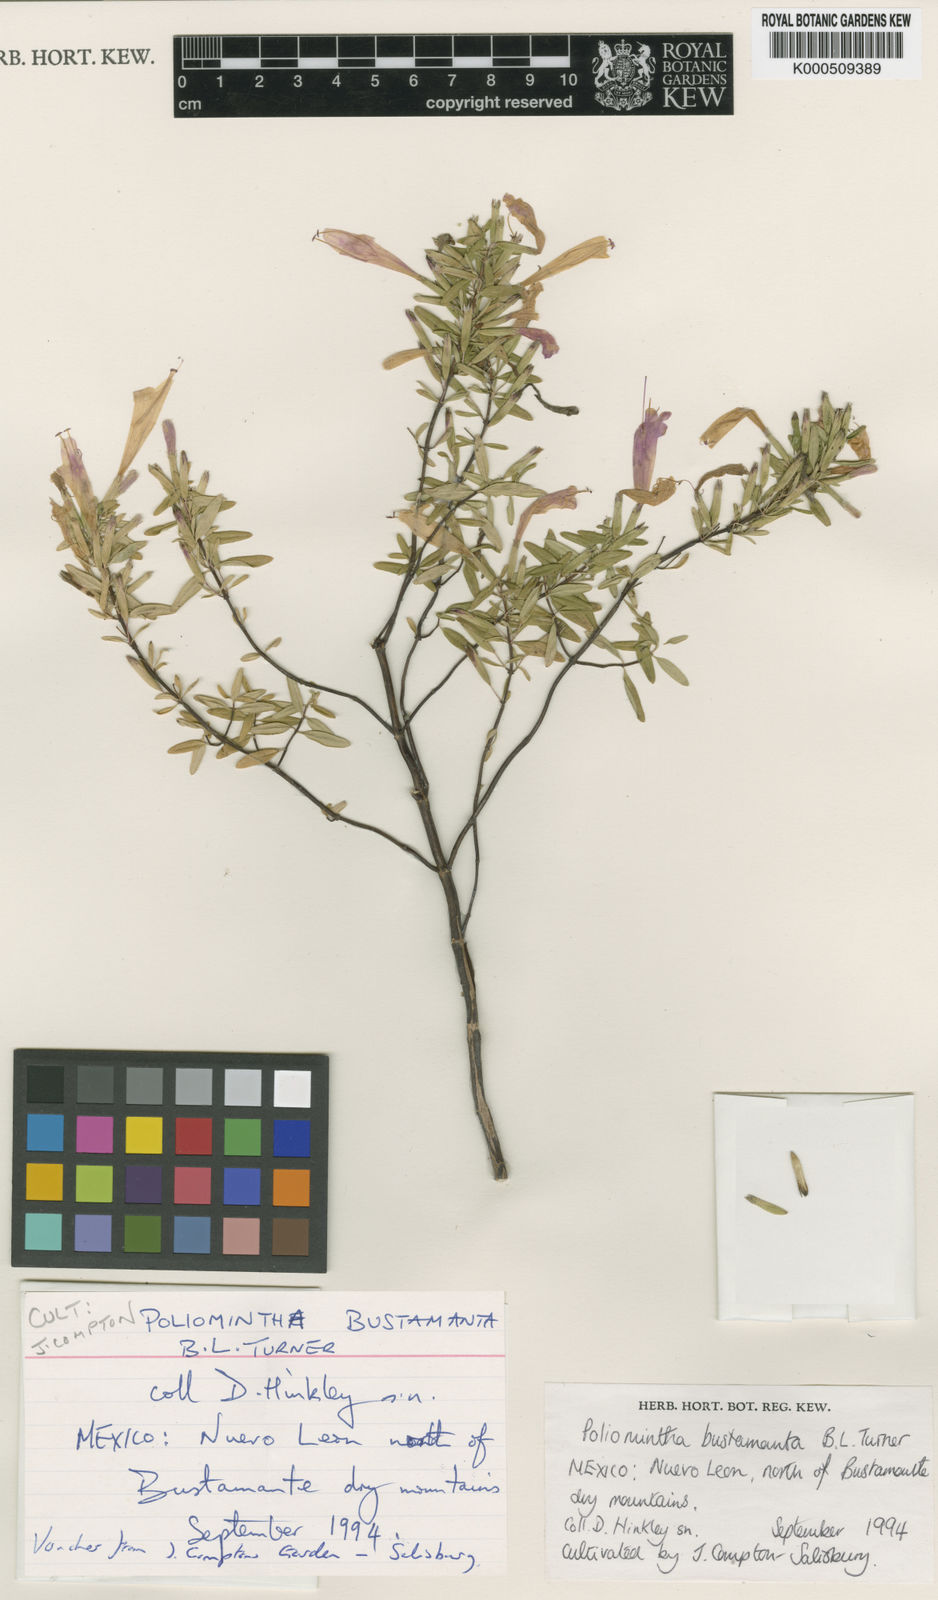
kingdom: Plantae
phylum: Tracheophyta
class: Magnoliopsida
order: Lamiales
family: Lamiaceae
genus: Poliomintha
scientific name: Poliomintha bustamanta
